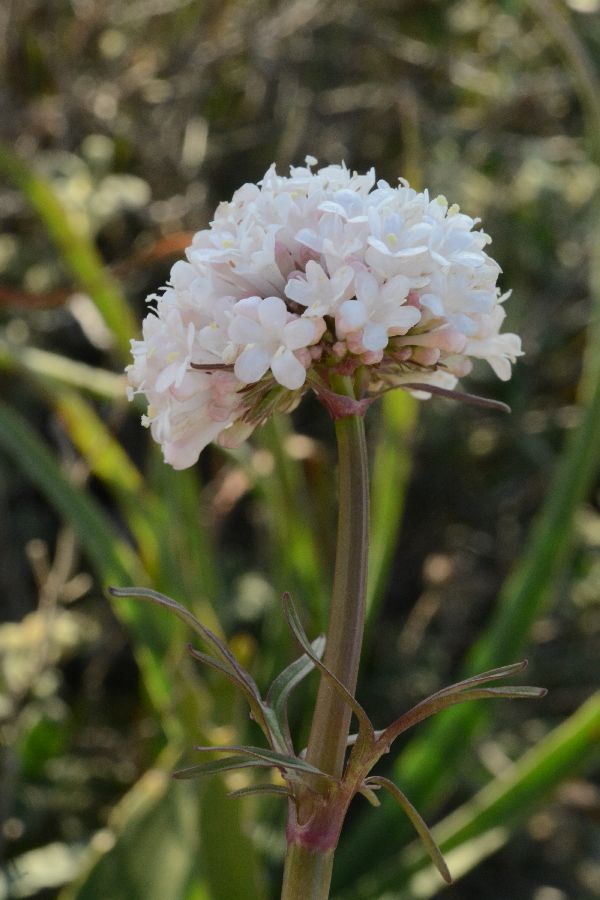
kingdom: Plantae
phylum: Tracheophyta
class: Magnoliopsida
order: Dipsacales
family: Caprifoliaceae
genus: Valeriana
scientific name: Valeriana alternifolia
